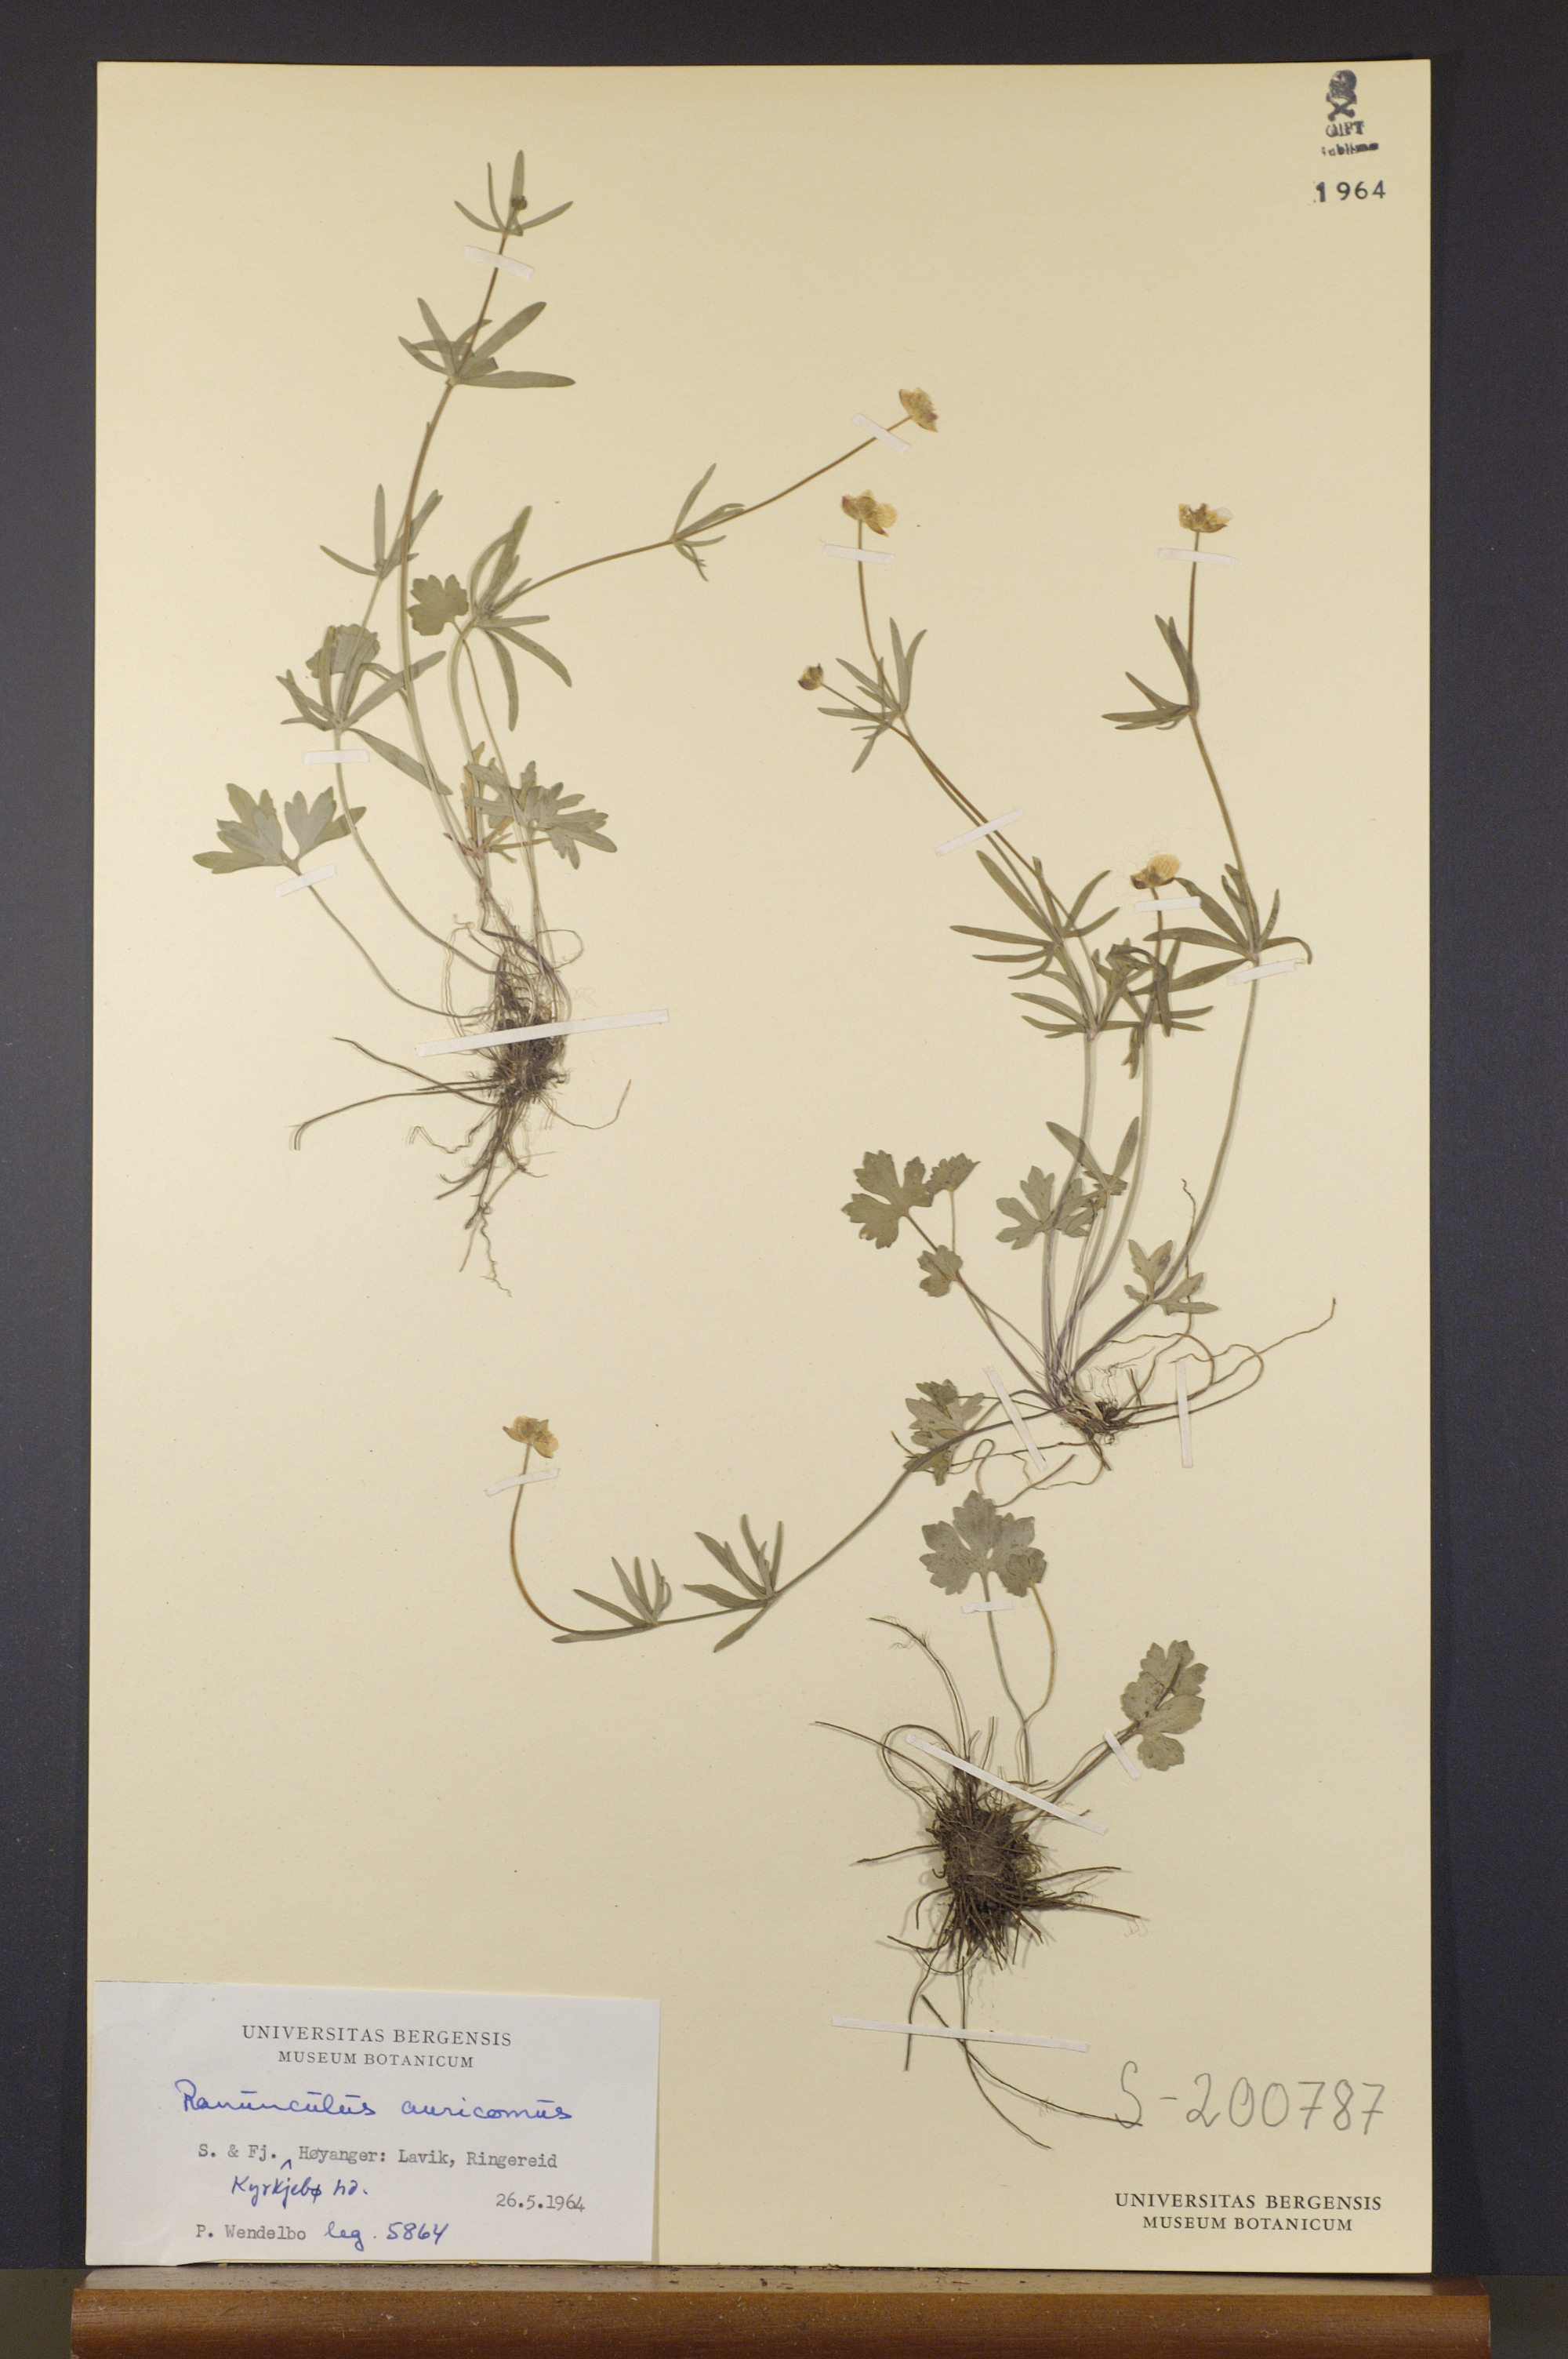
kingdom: Plantae
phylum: Tracheophyta
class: Magnoliopsida
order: Ranunculales
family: Ranunculaceae
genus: Ranunculus
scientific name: Ranunculus auricomus
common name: Goldilocks buttercup
